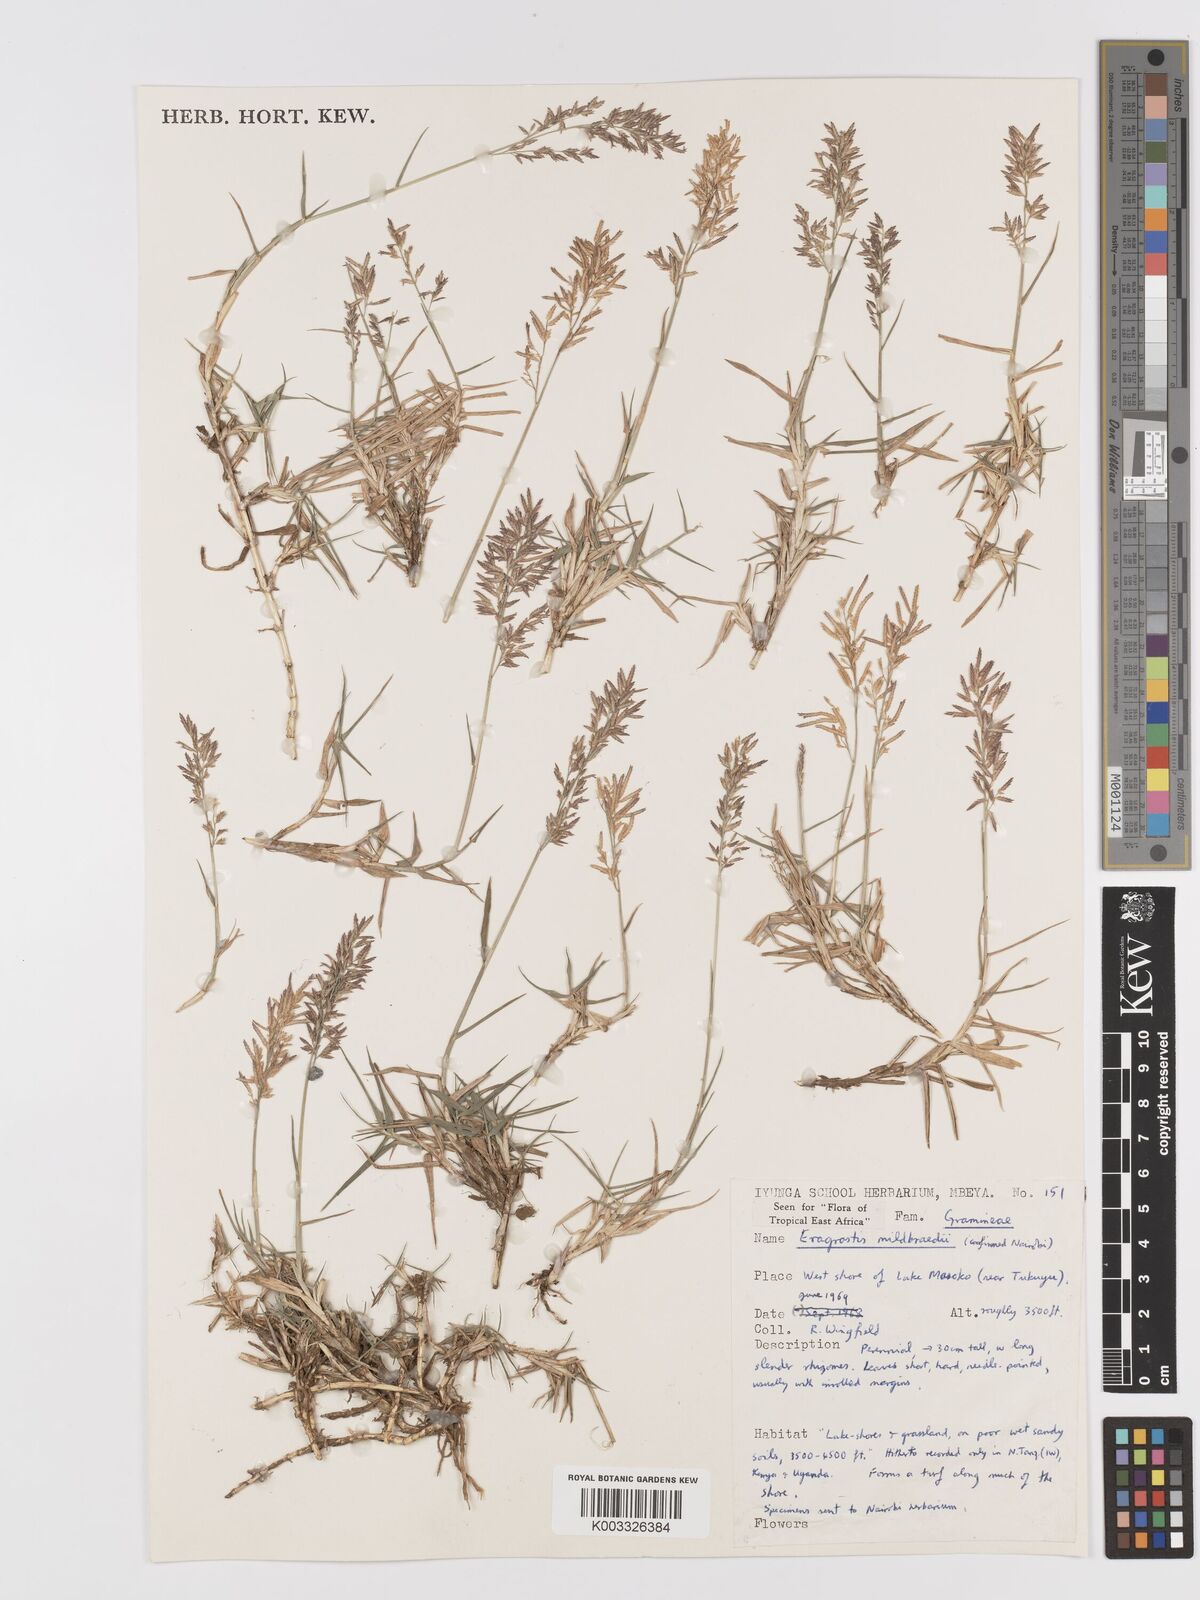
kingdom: Plantae
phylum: Tracheophyta
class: Liliopsida
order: Poales
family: Poaceae
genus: Eragrostis
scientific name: Eragrostis mildbraedii
